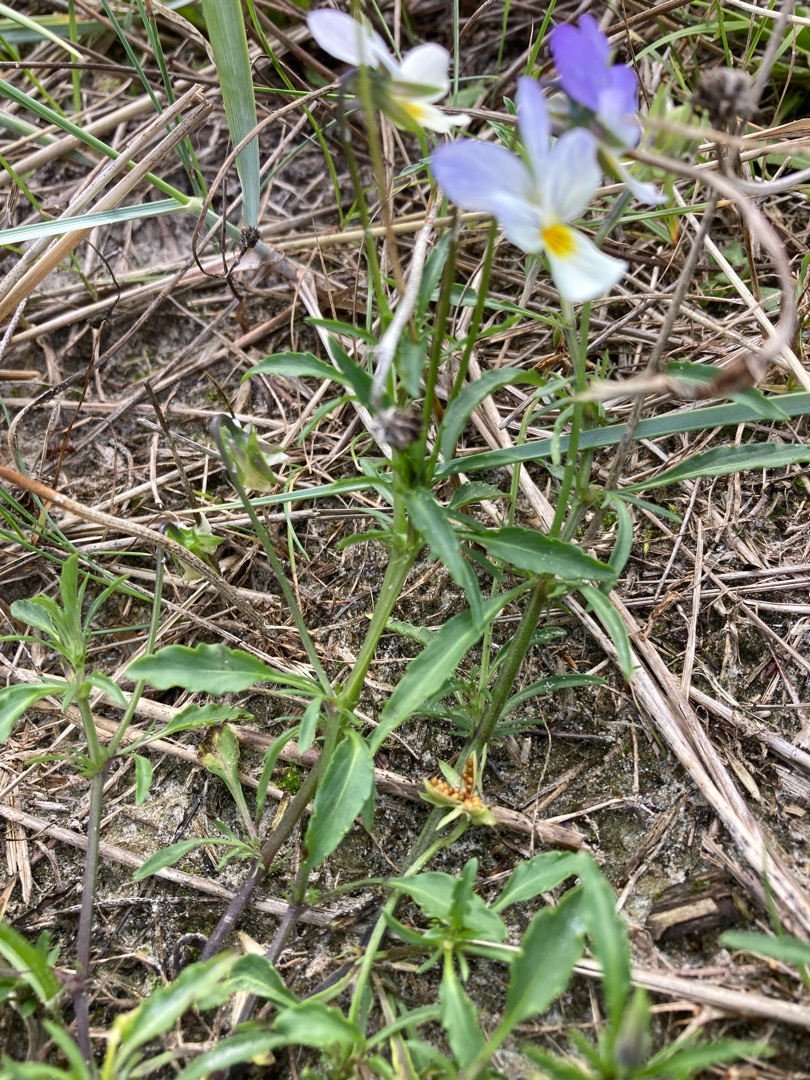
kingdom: Plantae
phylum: Tracheophyta
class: Magnoliopsida
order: Malpighiales
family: Violaceae
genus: Viola
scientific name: Viola tricolor
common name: Stedmoderblomst
